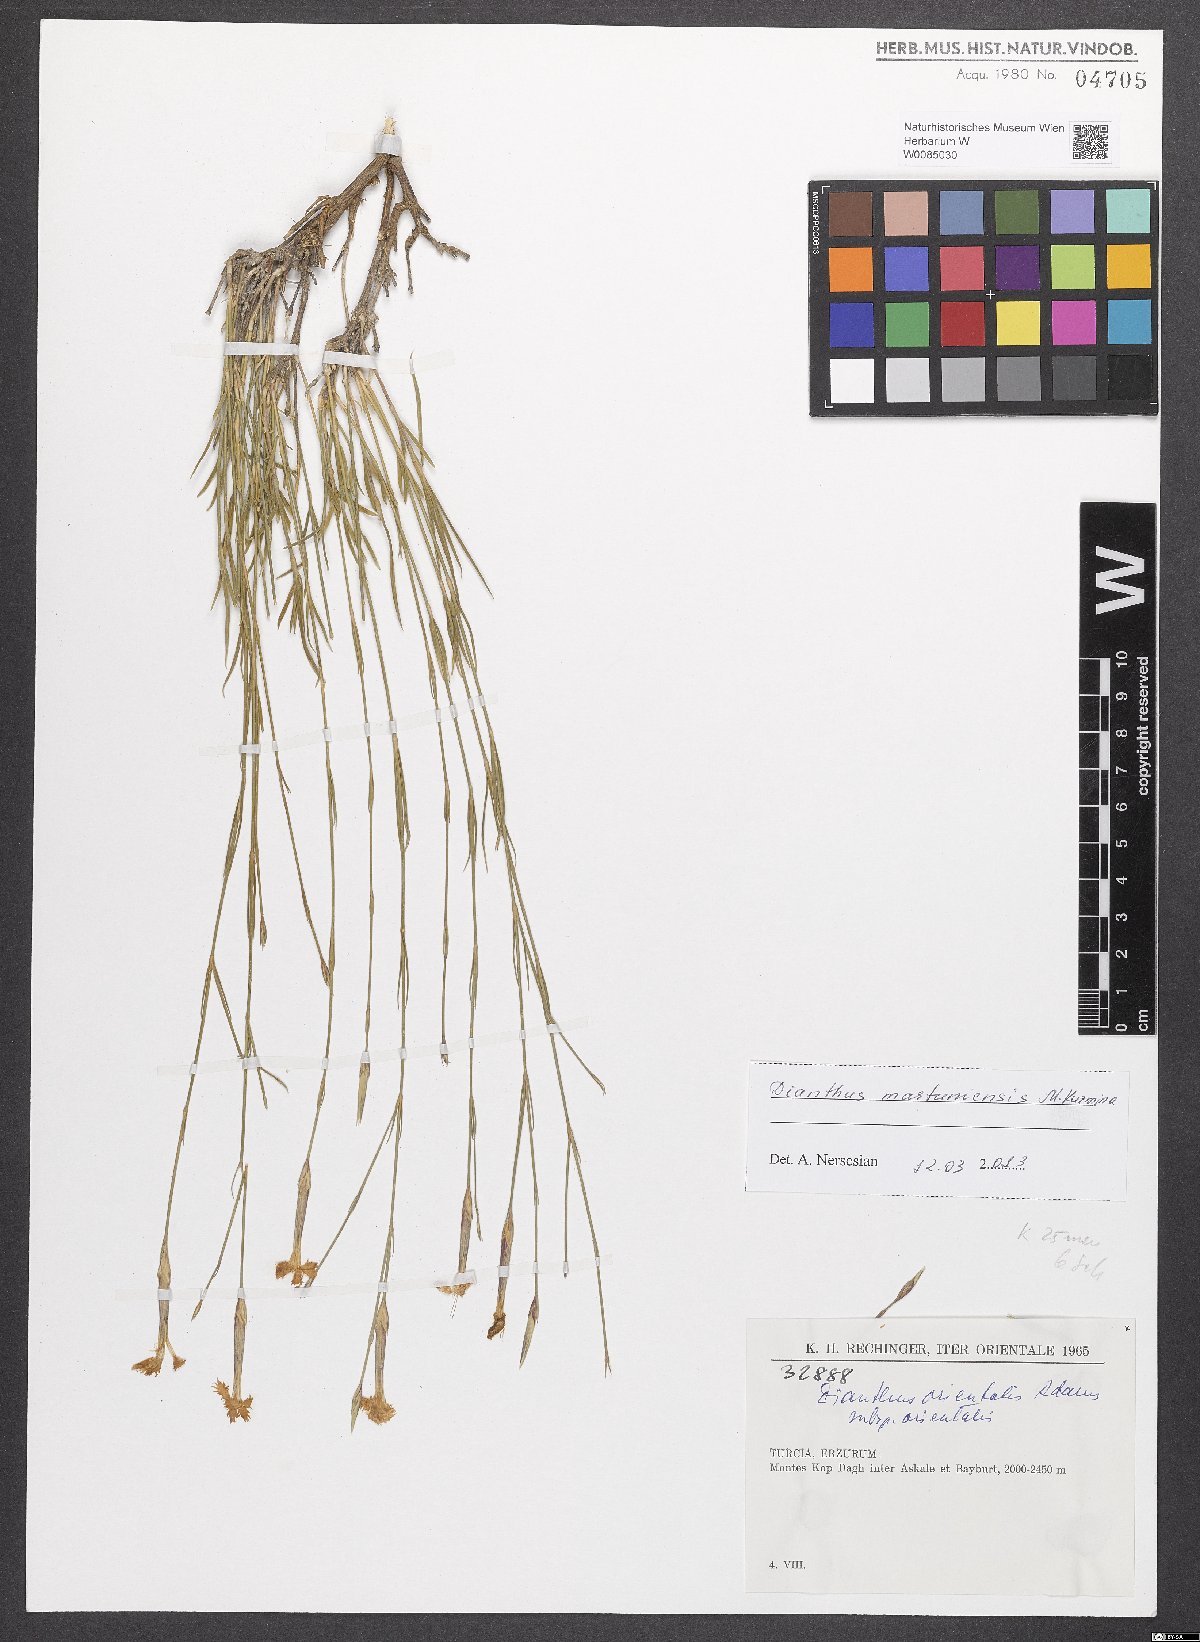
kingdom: Plantae
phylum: Tracheophyta
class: Magnoliopsida
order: Caryophyllales
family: Caryophyllaceae
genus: Dianthus
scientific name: Dianthus martuniensis
